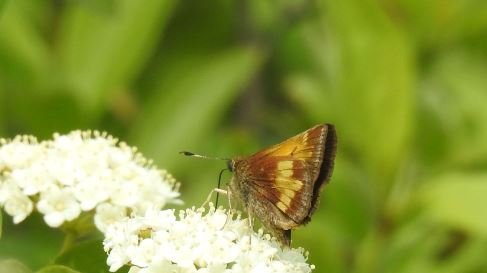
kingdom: Animalia
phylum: Arthropoda
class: Insecta
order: Lepidoptera
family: Hesperiidae
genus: Lon
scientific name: Lon hobomok
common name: Hobomok Skipper
